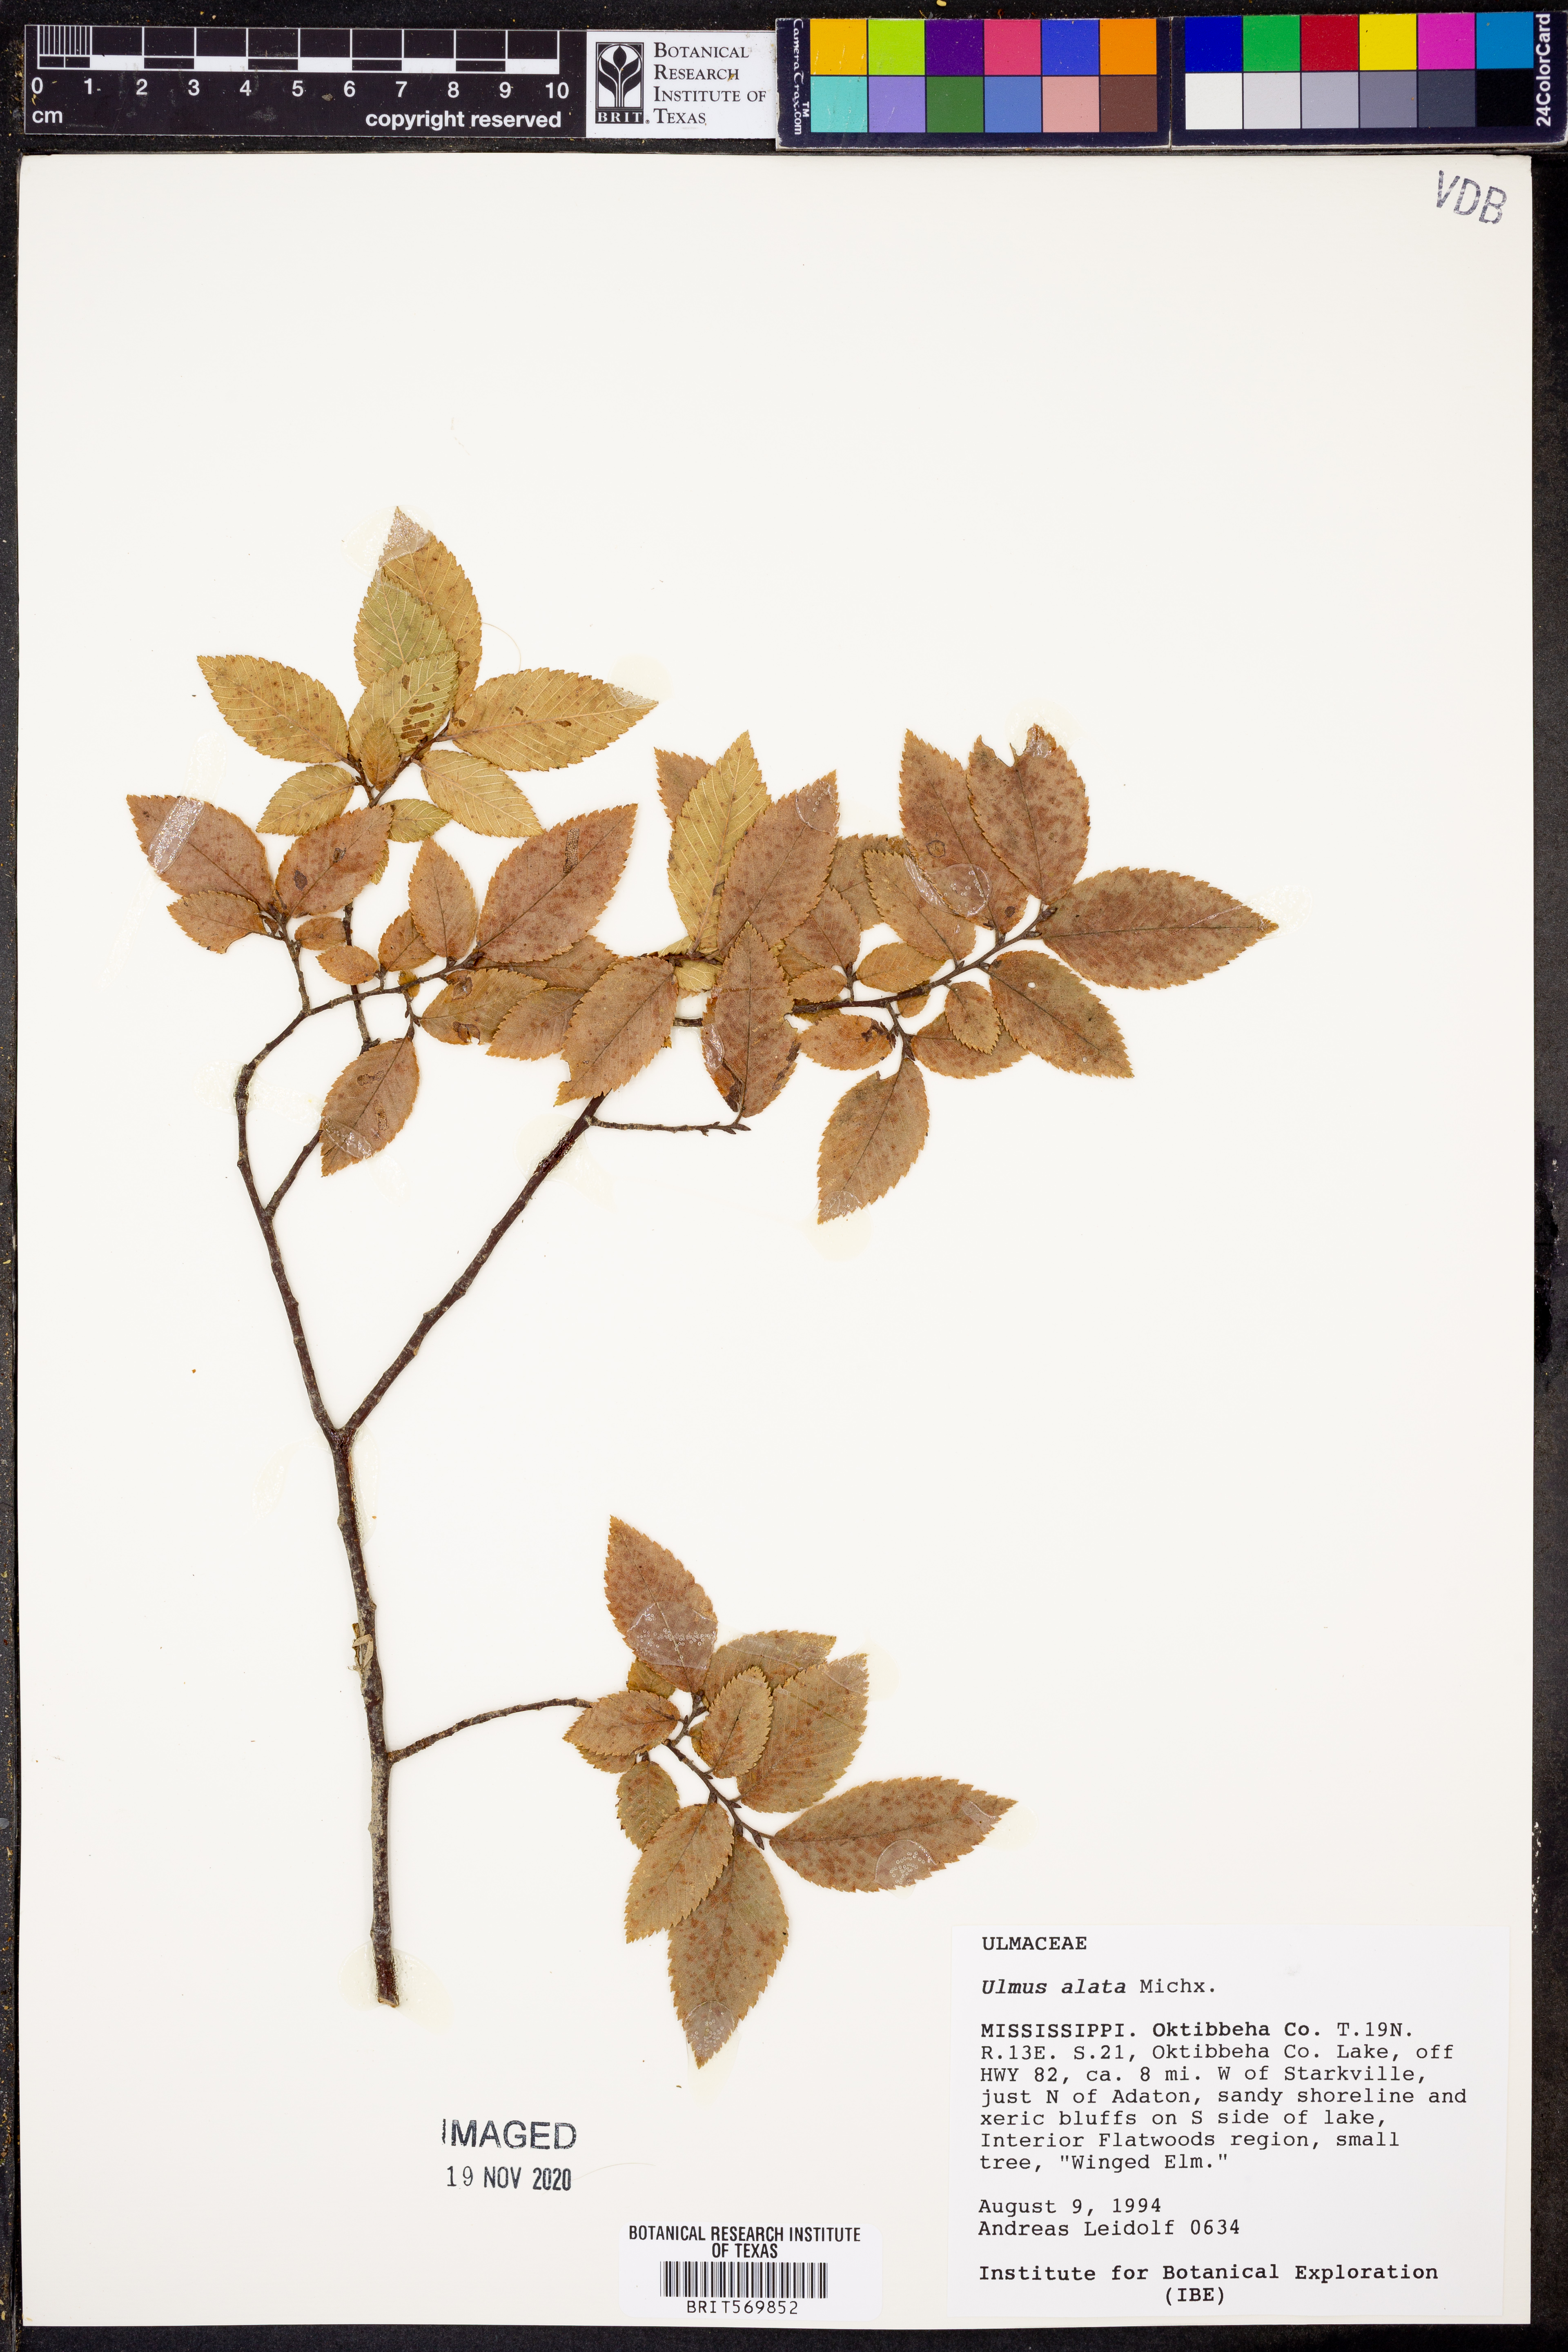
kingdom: Plantae
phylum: Tracheophyta
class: Magnoliopsida
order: Rosales
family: Ulmaceae
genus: Ulmus
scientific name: Ulmus alata
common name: Winged elm
